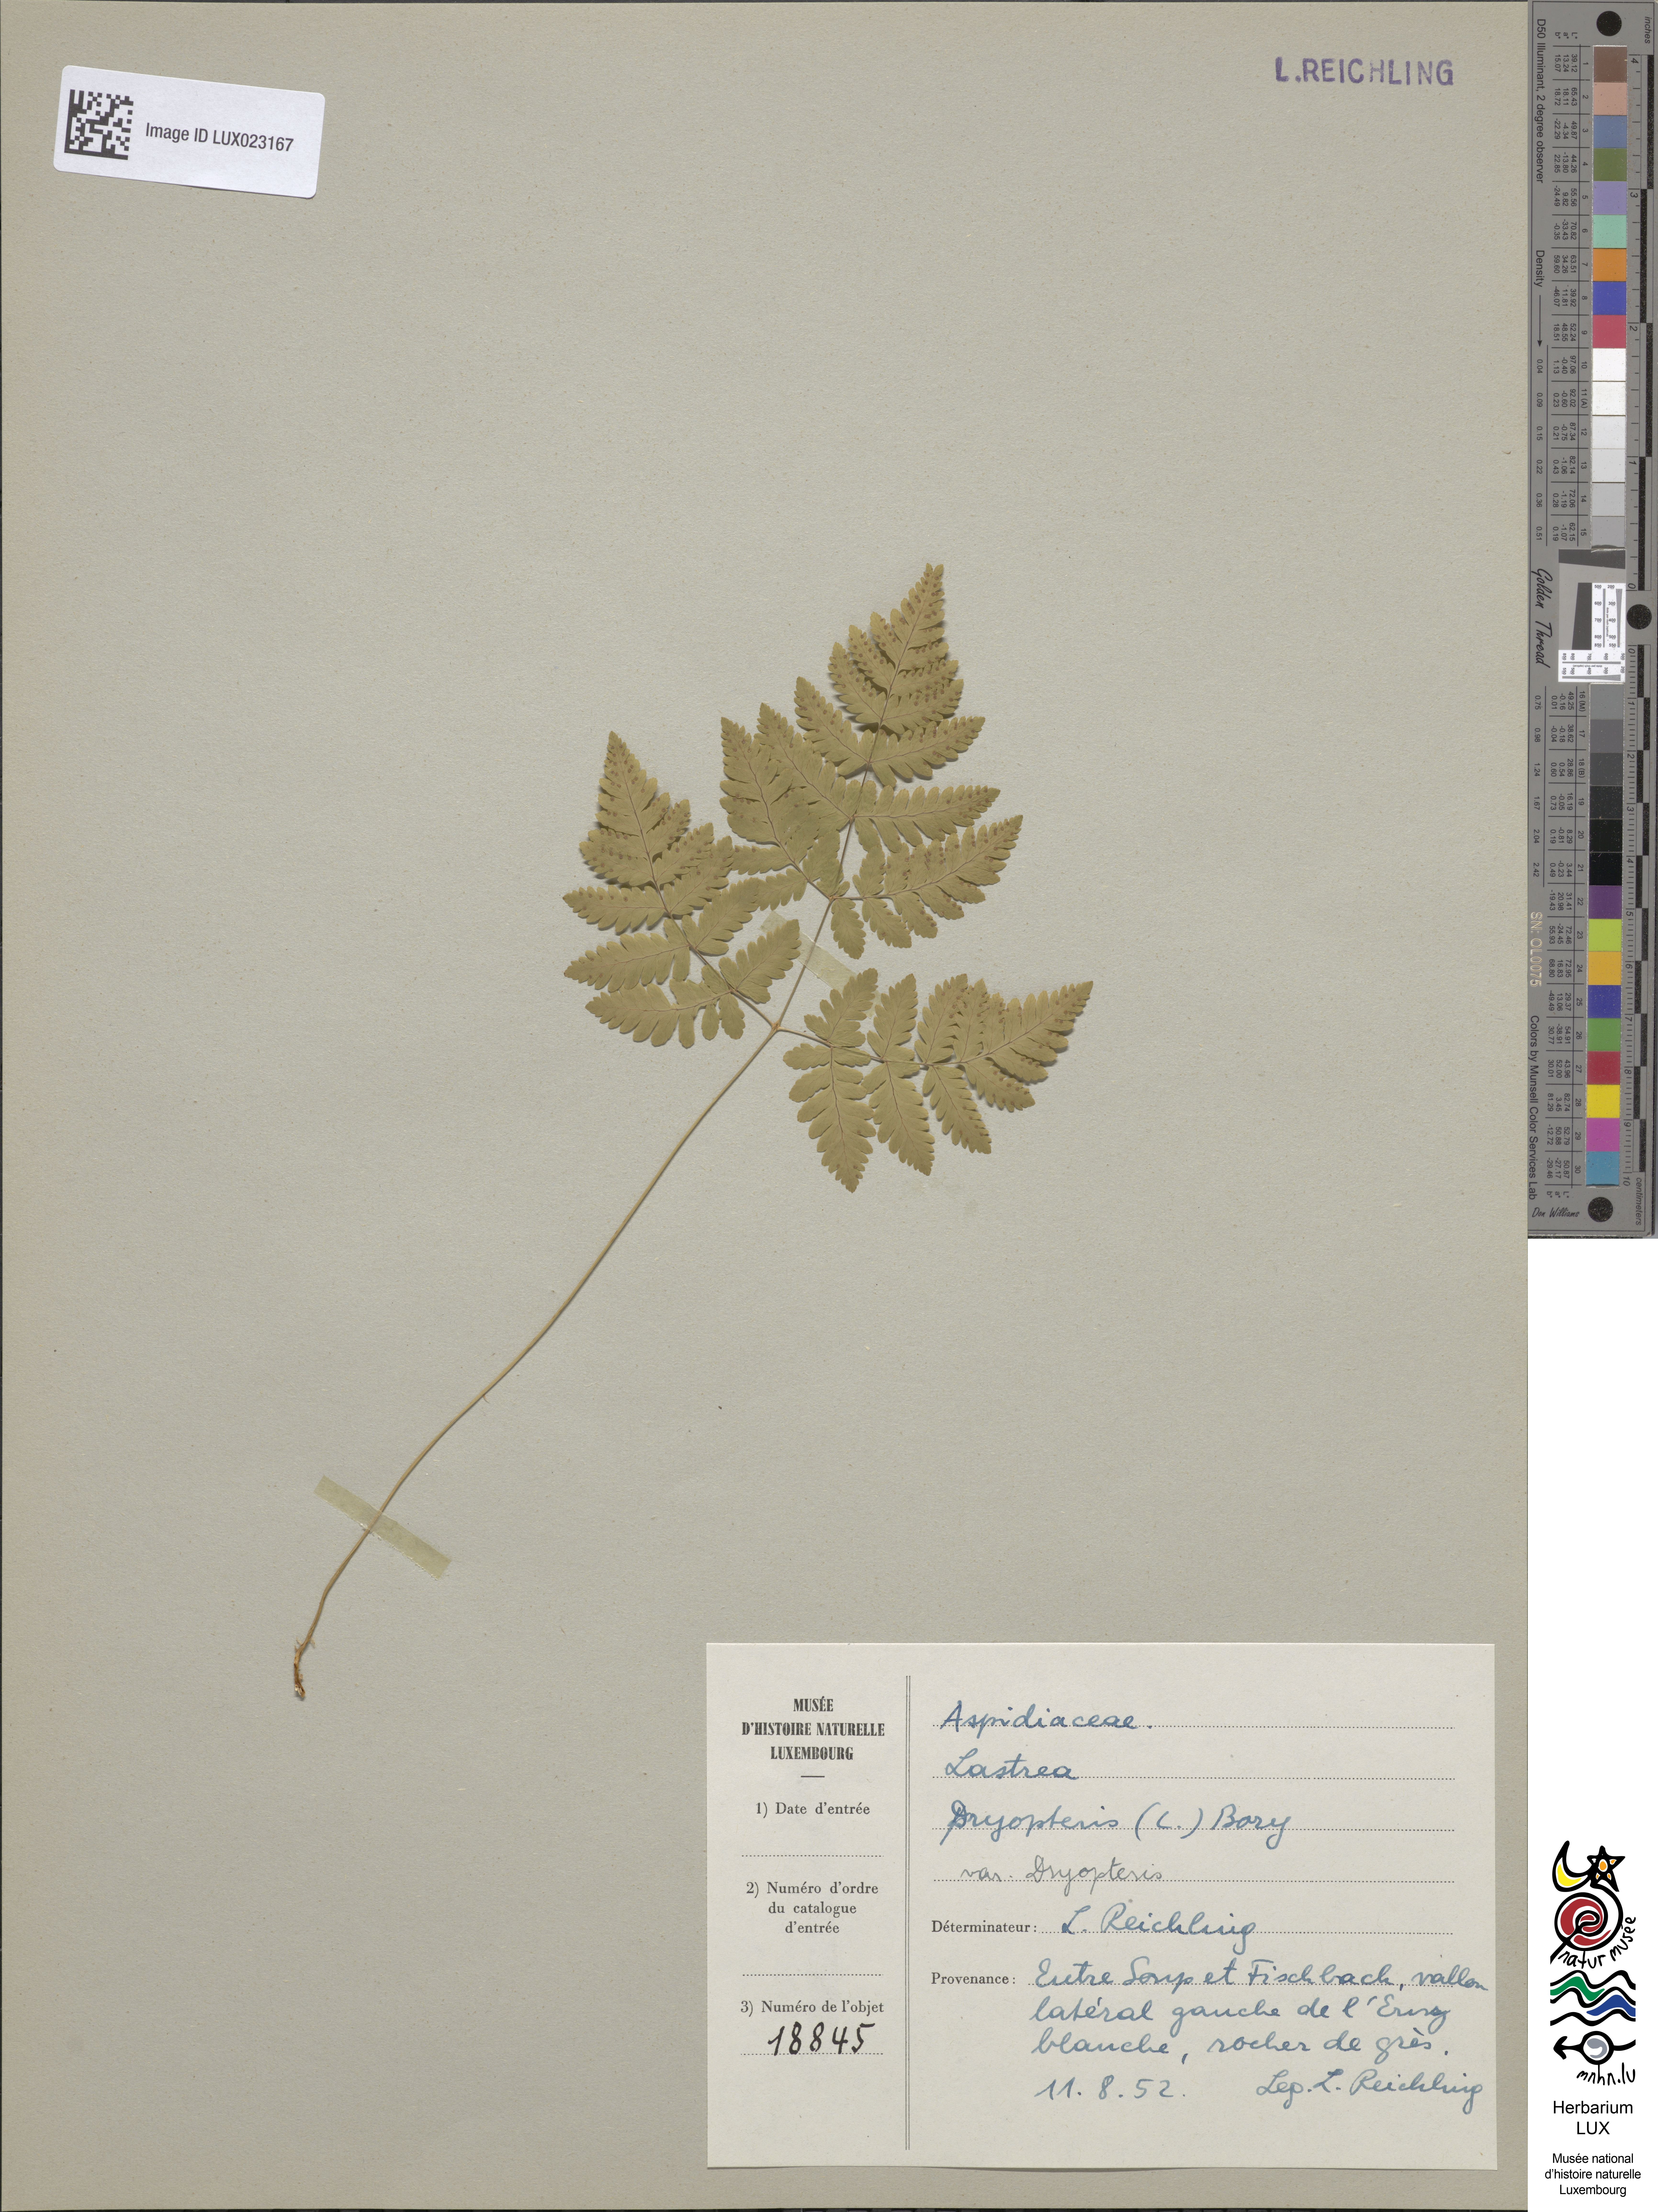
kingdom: Plantae
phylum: Tracheophyta
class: Polypodiopsida
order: Polypodiales
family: Cystopteridaceae
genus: Gymnocarpium
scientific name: Gymnocarpium dryopteris
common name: Oak fern
